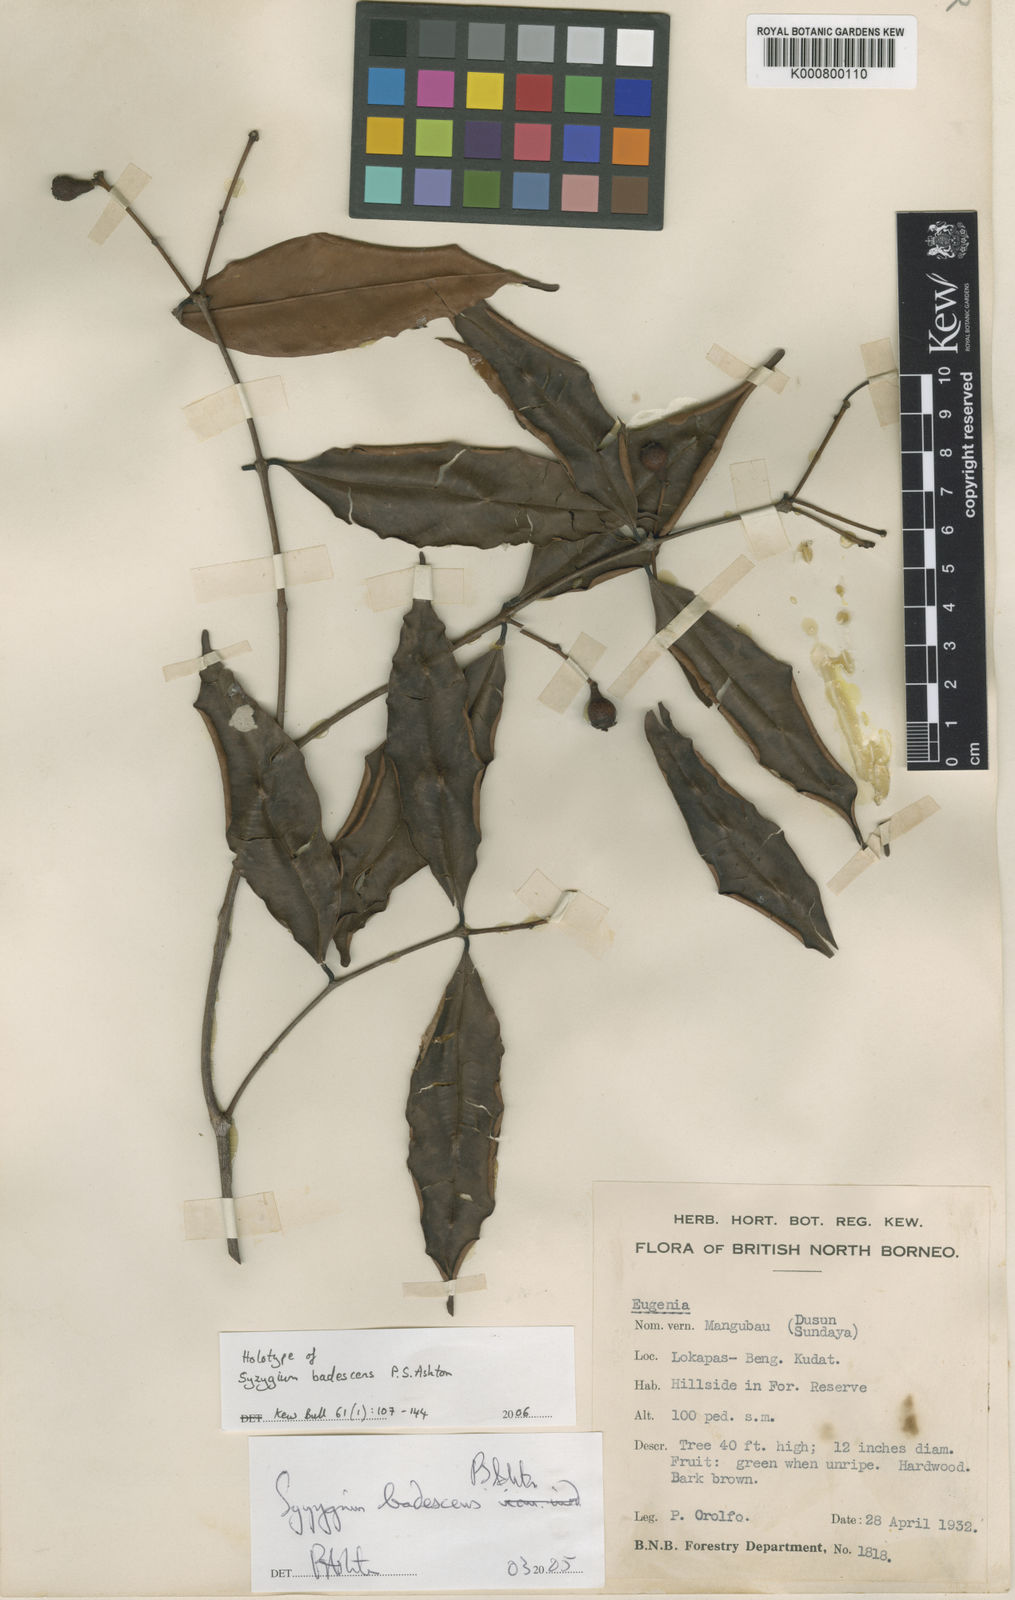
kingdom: Plantae
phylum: Tracheophyta
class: Magnoliopsida
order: Myrtales
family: Myrtaceae
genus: Syzygium
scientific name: Syzygium badescens
